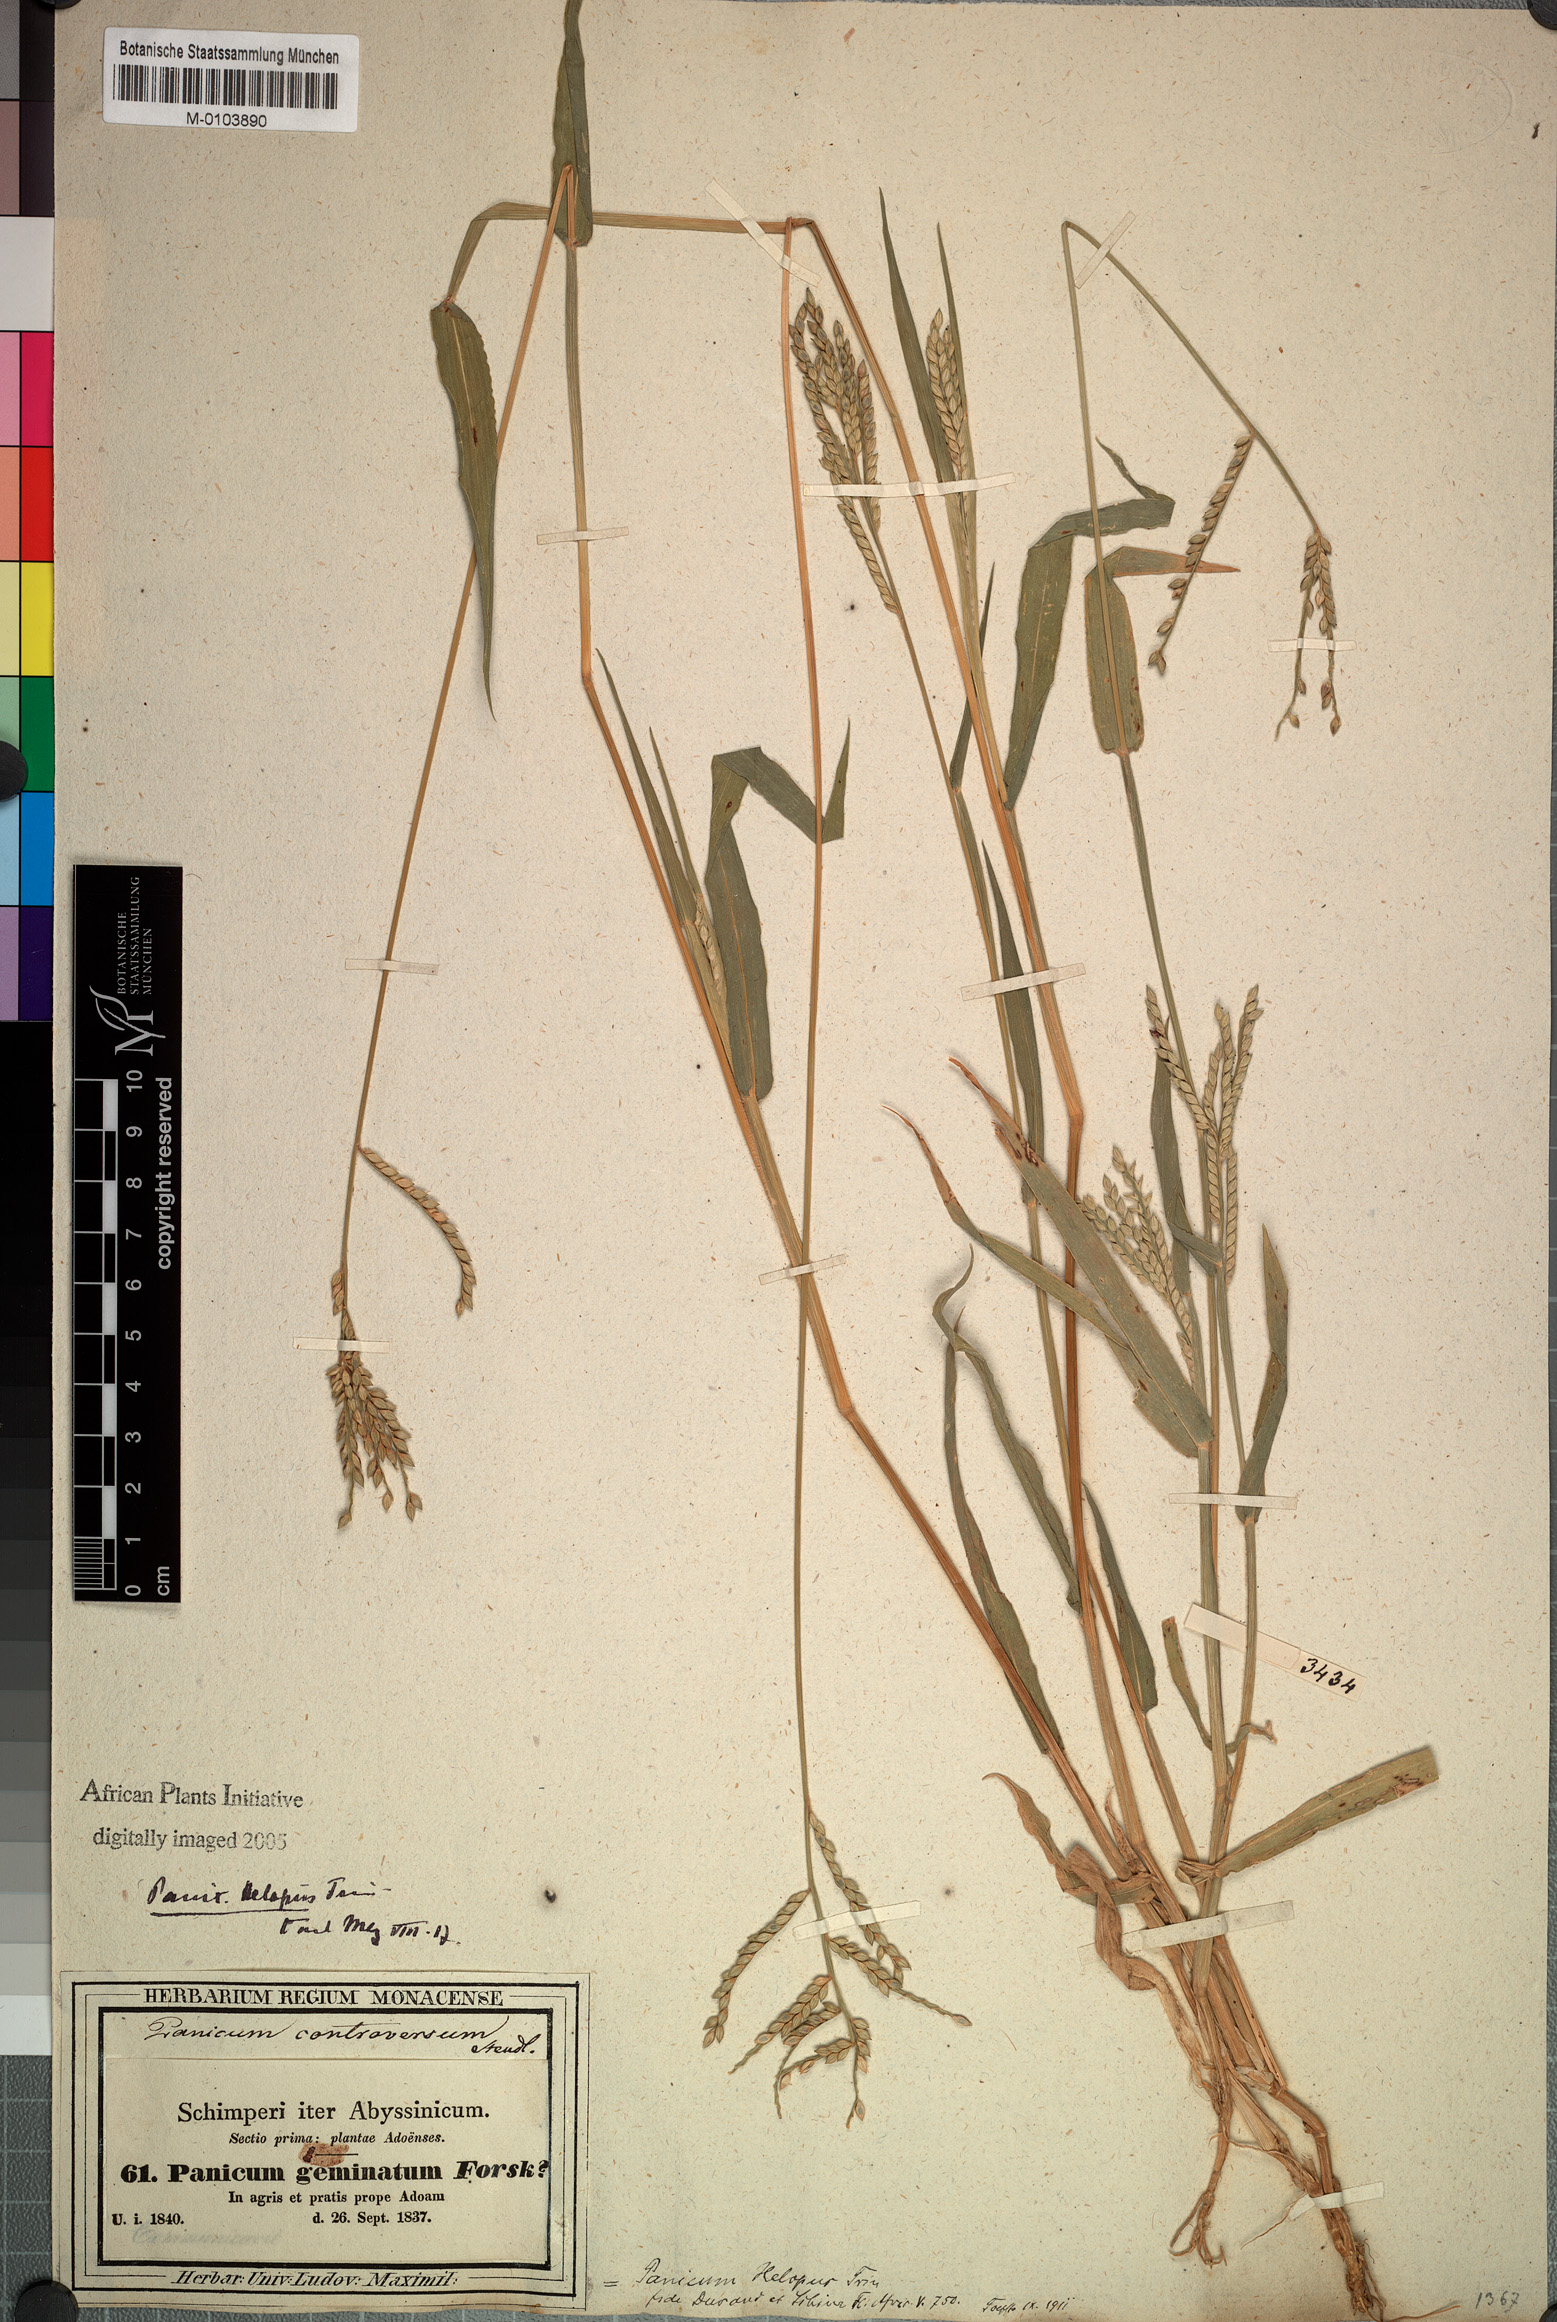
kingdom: Plantae
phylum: Tracheophyta
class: Liliopsida
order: Poales
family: Poaceae
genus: Urochloa
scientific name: Urochloa panicoides
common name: Sharp-flowered signal-grass
